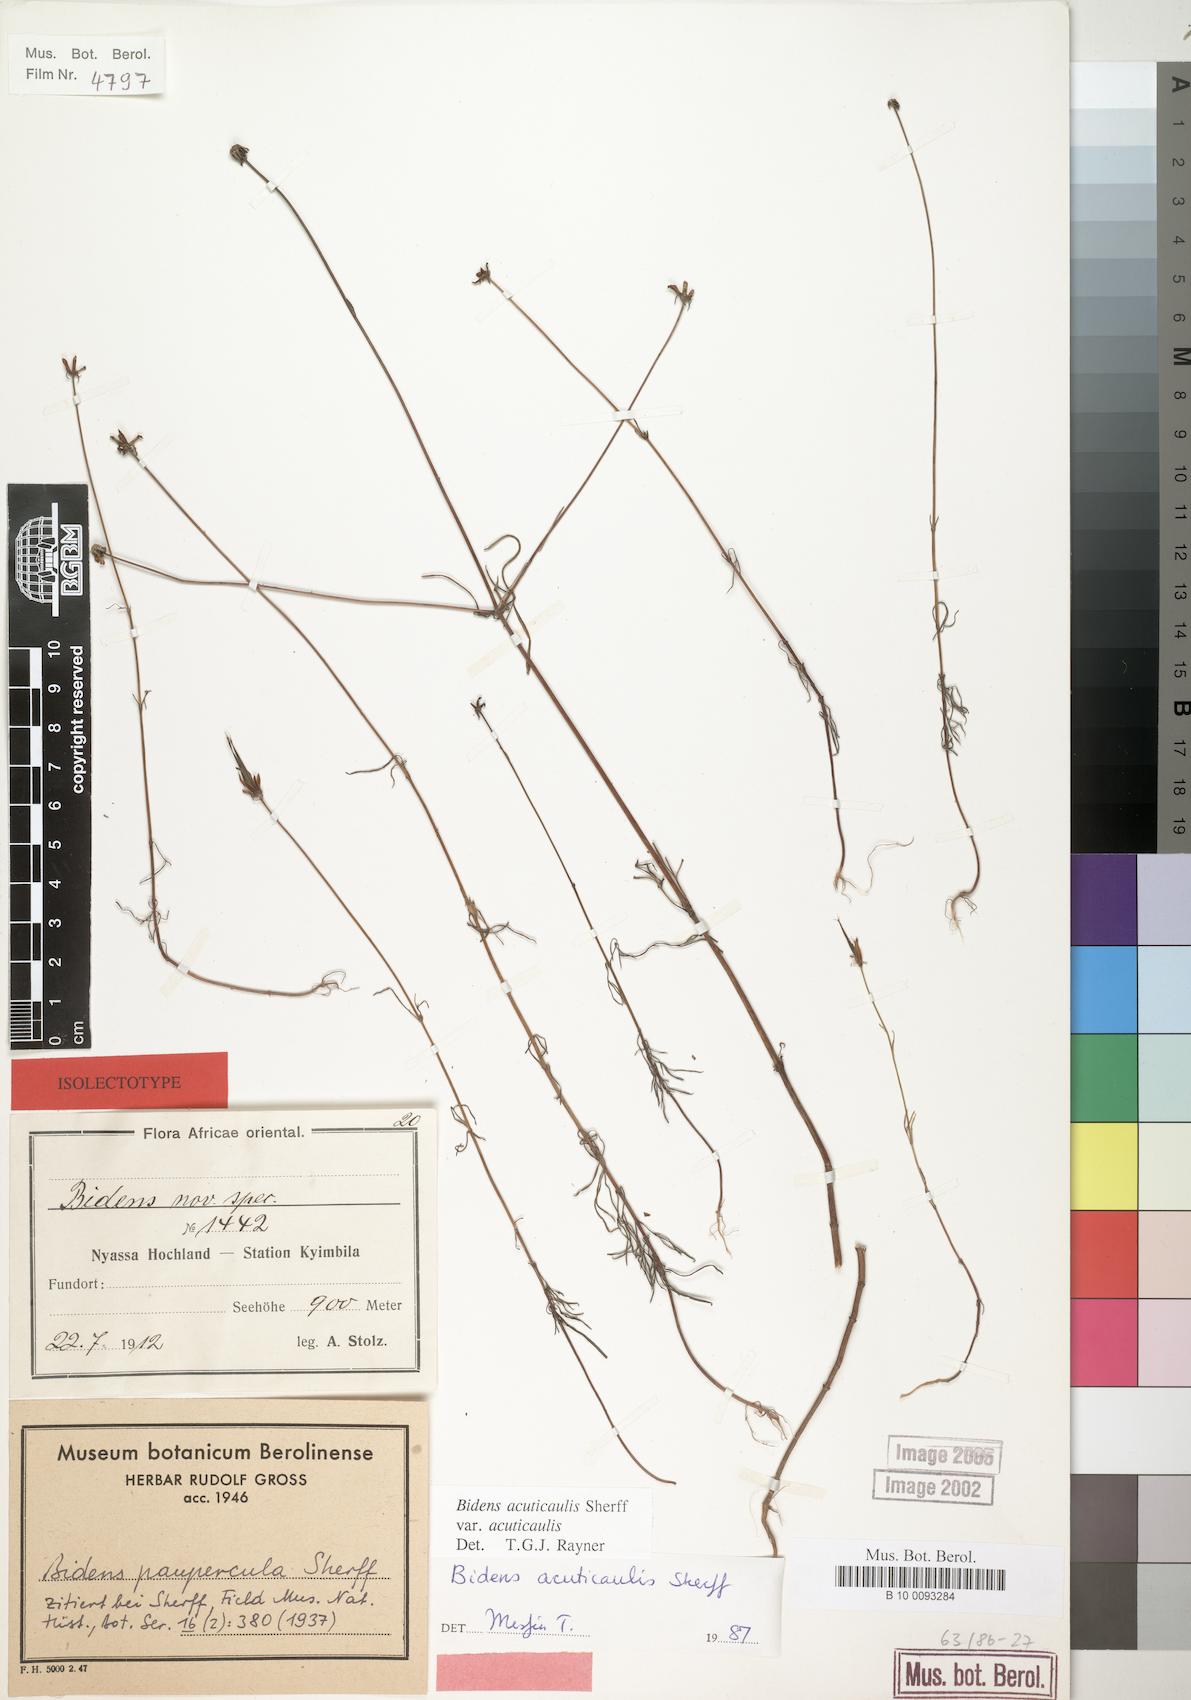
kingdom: Plantae
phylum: Tracheophyta
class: Magnoliopsida
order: Asterales
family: Asteraceae
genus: Bidens
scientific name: Bidens acuticaulis
